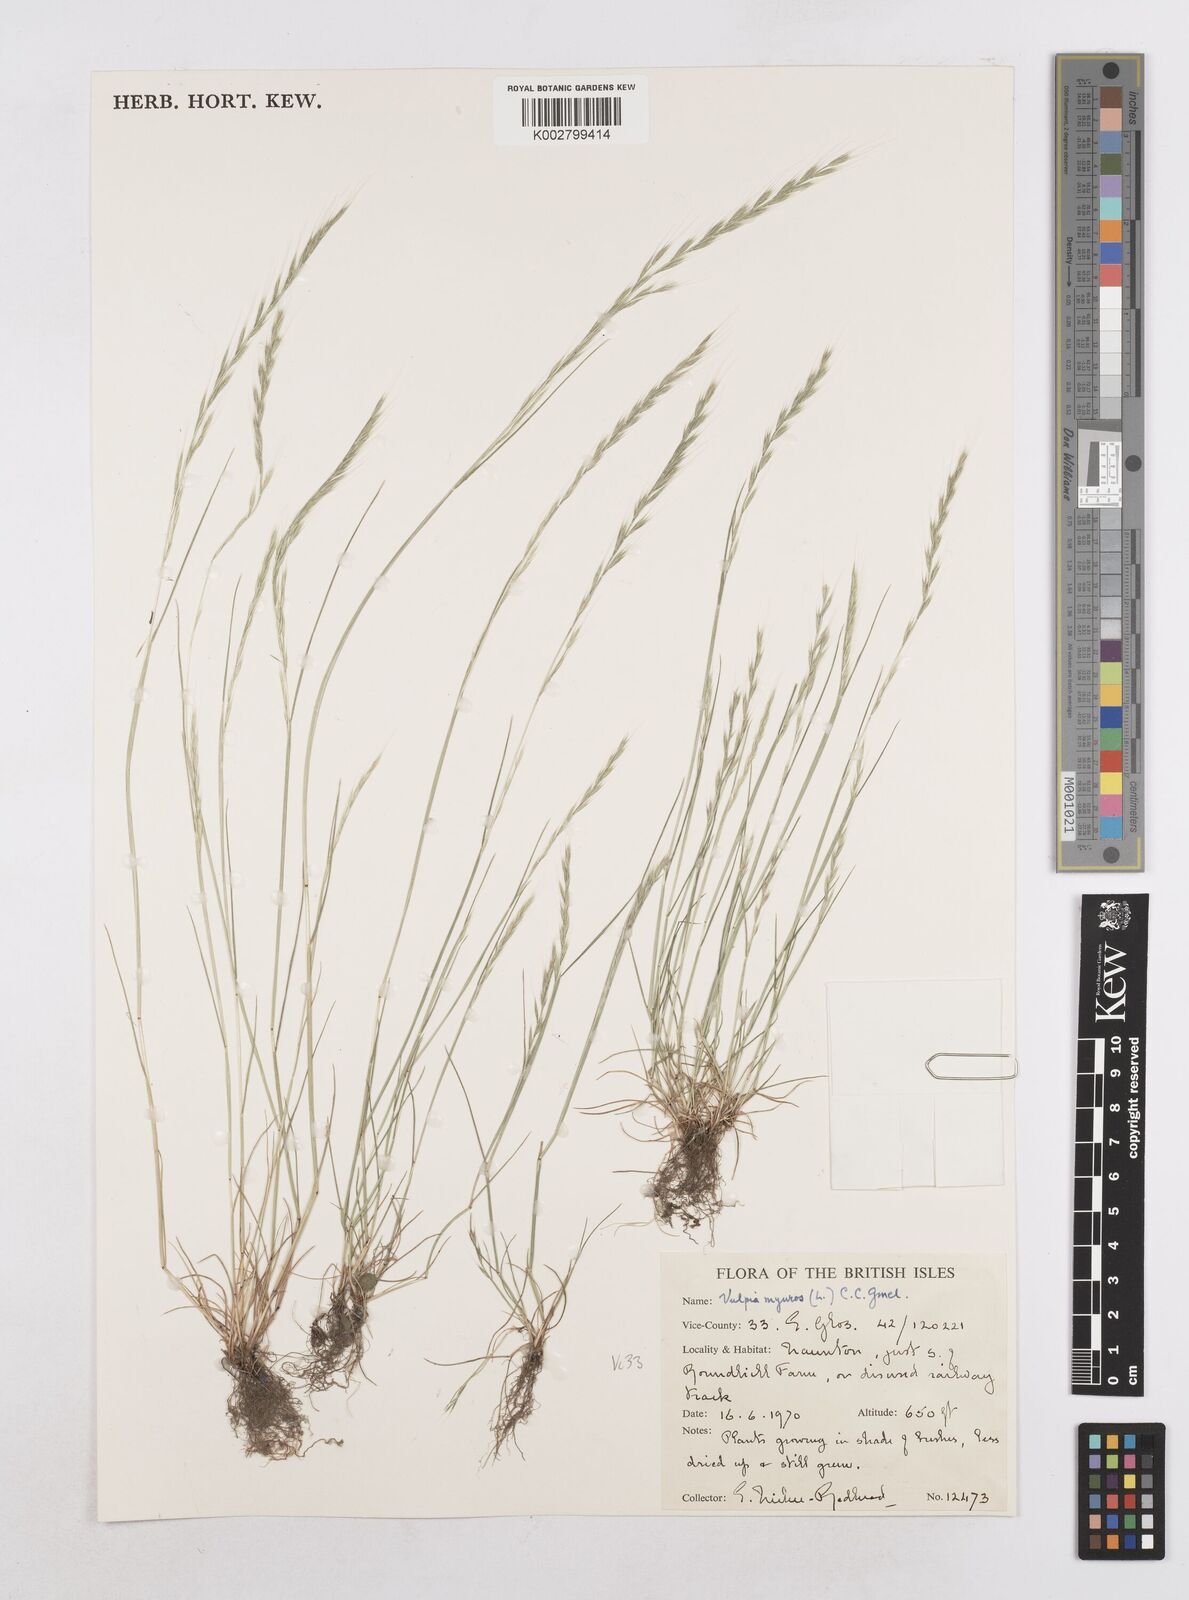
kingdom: Plantae
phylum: Tracheophyta
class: Liliopsida
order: Poales
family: Poaceae
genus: Festuca
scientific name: Festuca myuros
